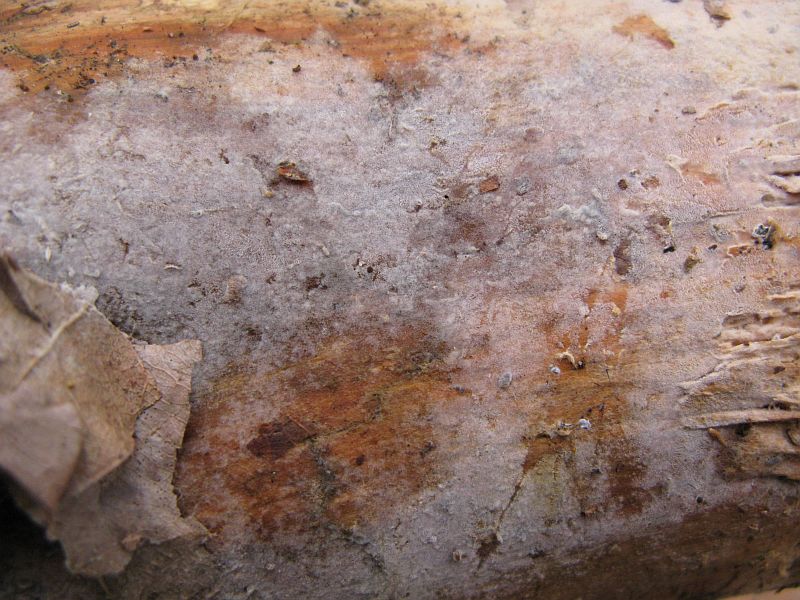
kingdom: Fungi
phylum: Basidiomycota
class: Agaricomycetes
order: Cantharellales
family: Botryobasidiaceae
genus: Botryobasidium
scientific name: Botryobasidium vagum
